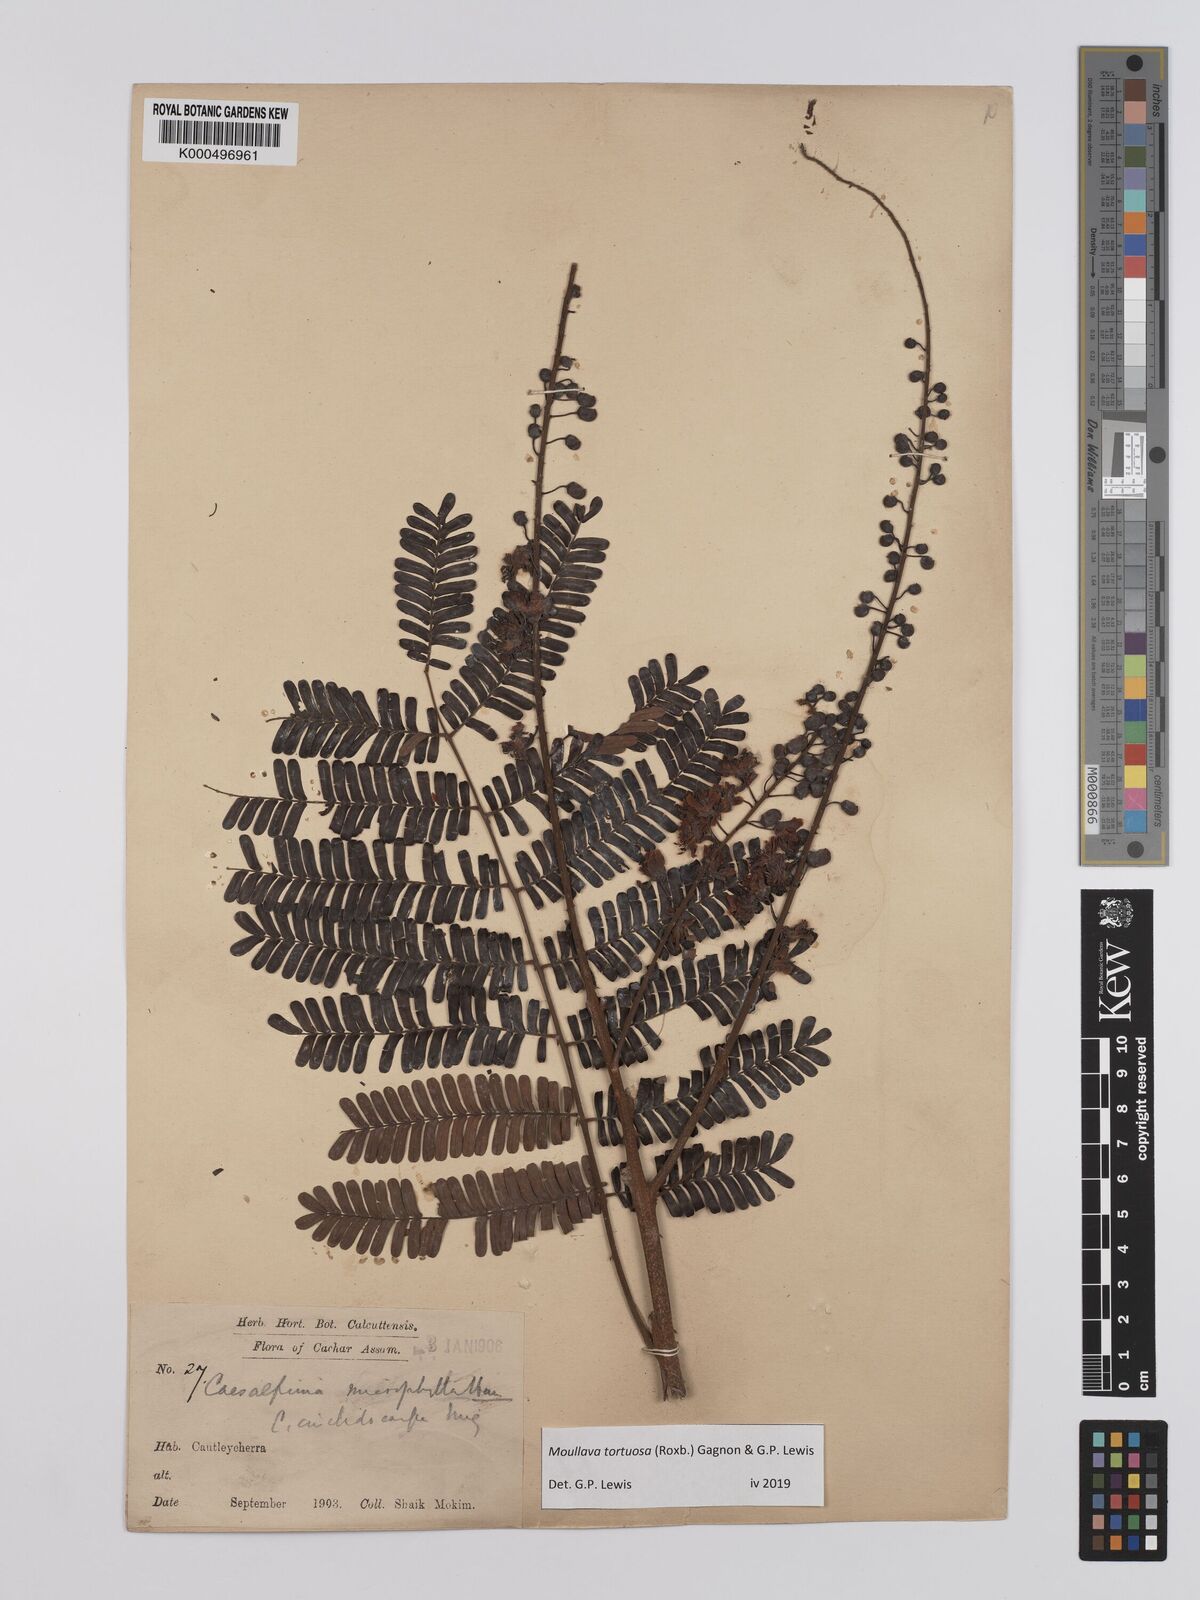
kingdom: Plantae
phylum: Tracheophyta
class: Magnoliopsida
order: Fabales
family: Fabaceae
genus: Moullava
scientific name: Moullava tortuosa
